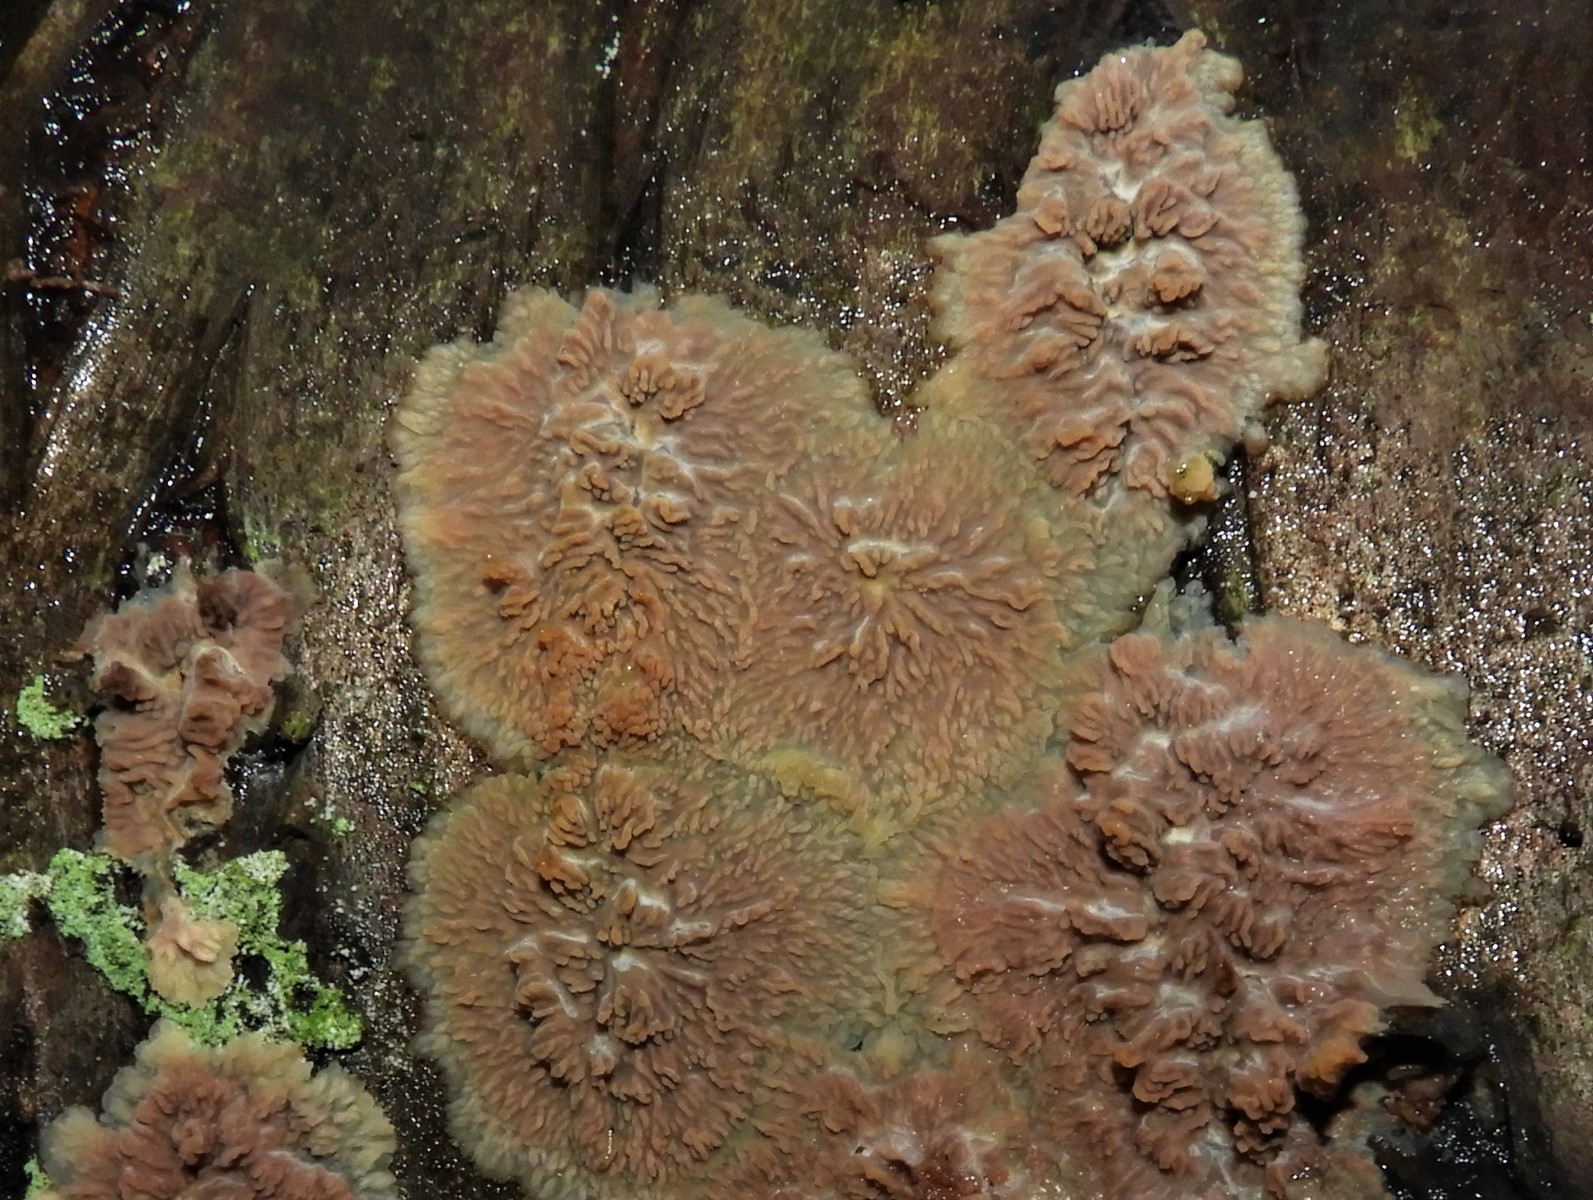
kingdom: Fungi
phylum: Basidiomycota
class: Agaricomycetes
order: Polyporales
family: Meruliaceae
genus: Phlebia
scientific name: Phlebia radiata
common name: stråle-åresvamp
